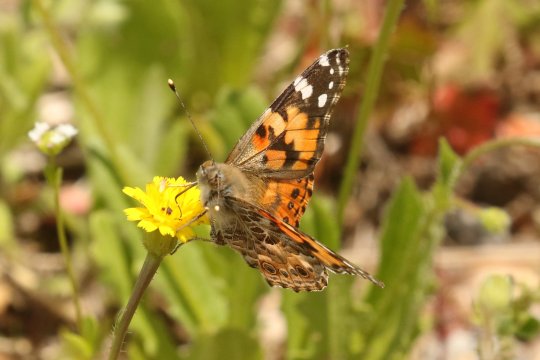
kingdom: Animalia
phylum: Arthropoda
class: Insecta
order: Lepidoptera
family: Nymphalidae
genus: Vanessa
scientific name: Vanessa cardui
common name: Painted Lady
